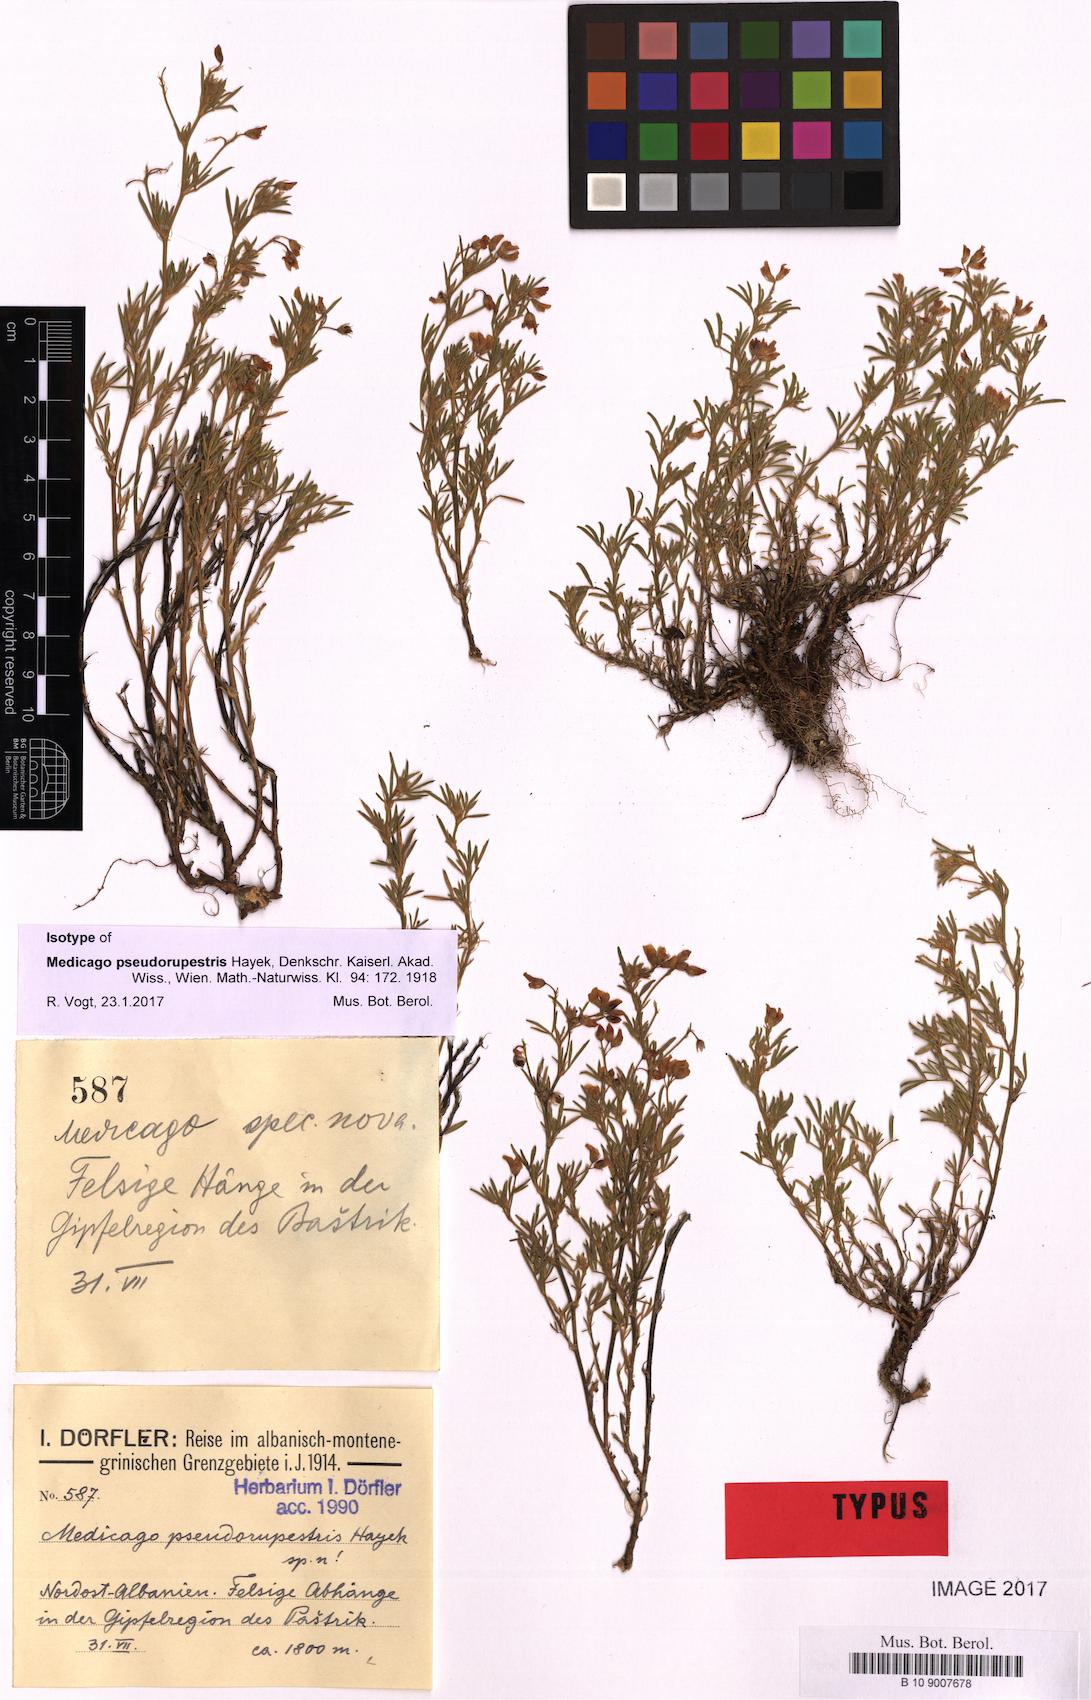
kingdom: Plantae
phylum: Tracheophyta
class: Magnoliopsida
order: Fabales
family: Fabaceae
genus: Medicago
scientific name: Medicago prostrata
